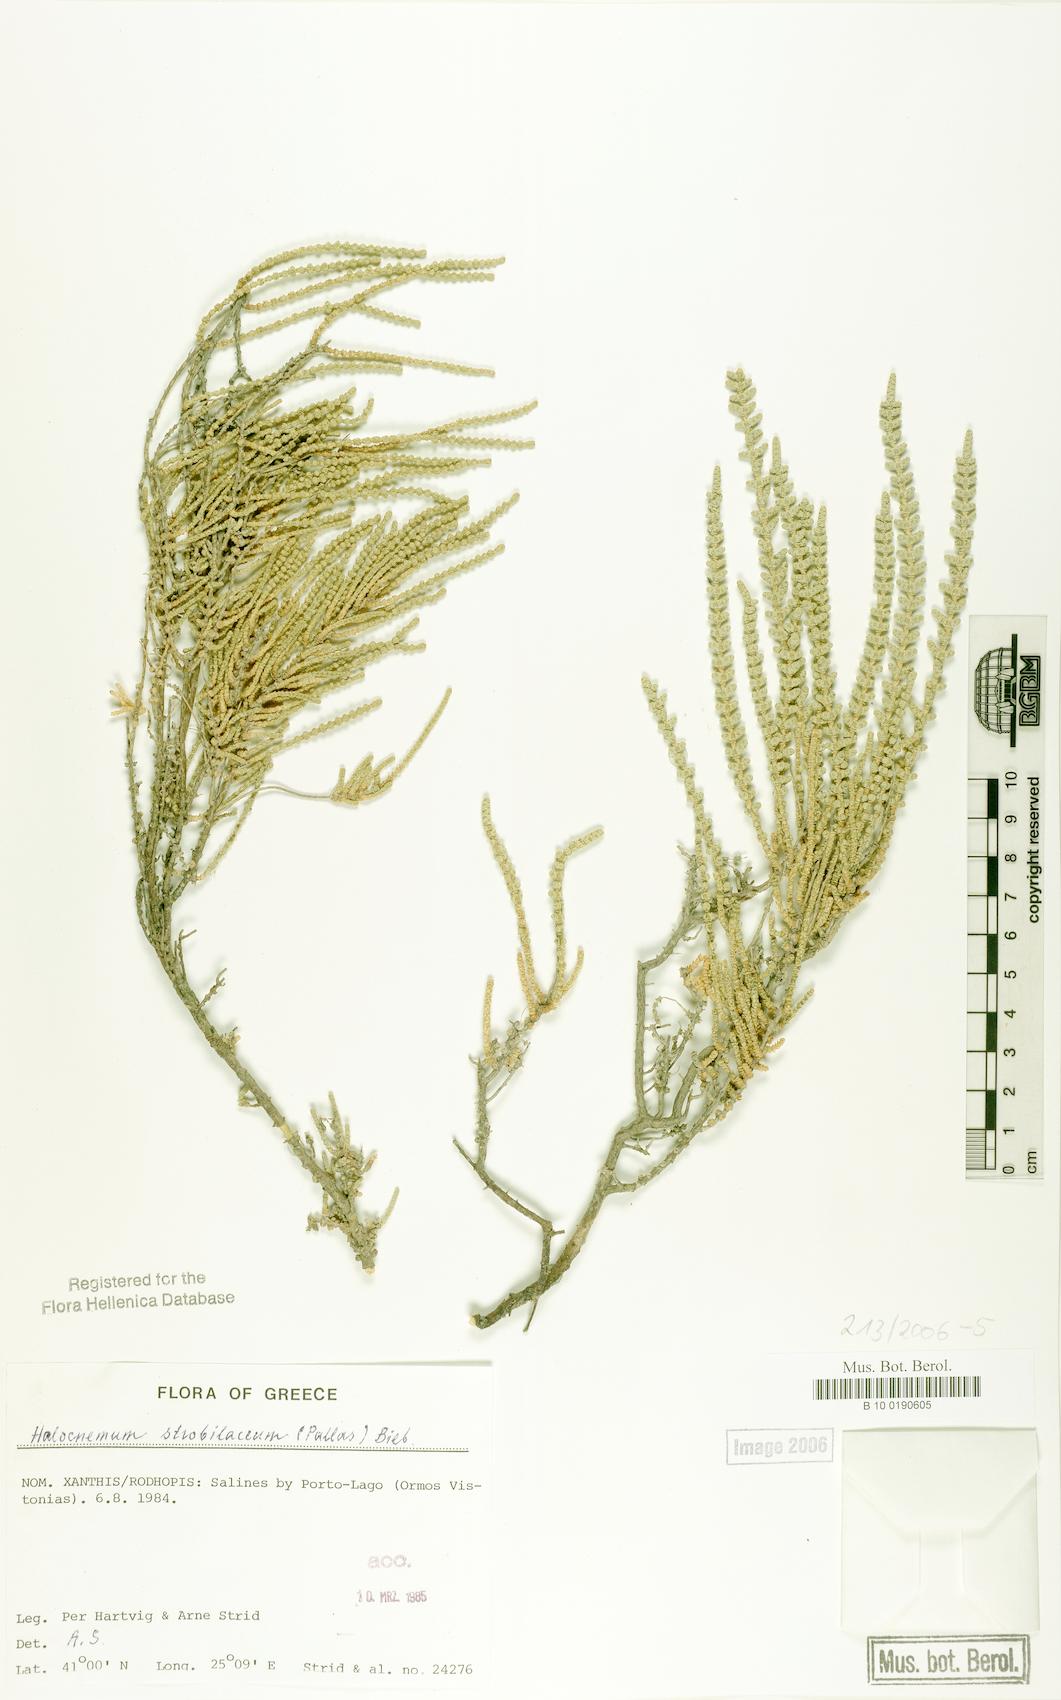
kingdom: Plantae
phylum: Tracheophyta
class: Magnoliopsida
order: Caryophyllales
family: Amaranthaceae
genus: Halocnemum
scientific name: Halocnemum strobilaceum
